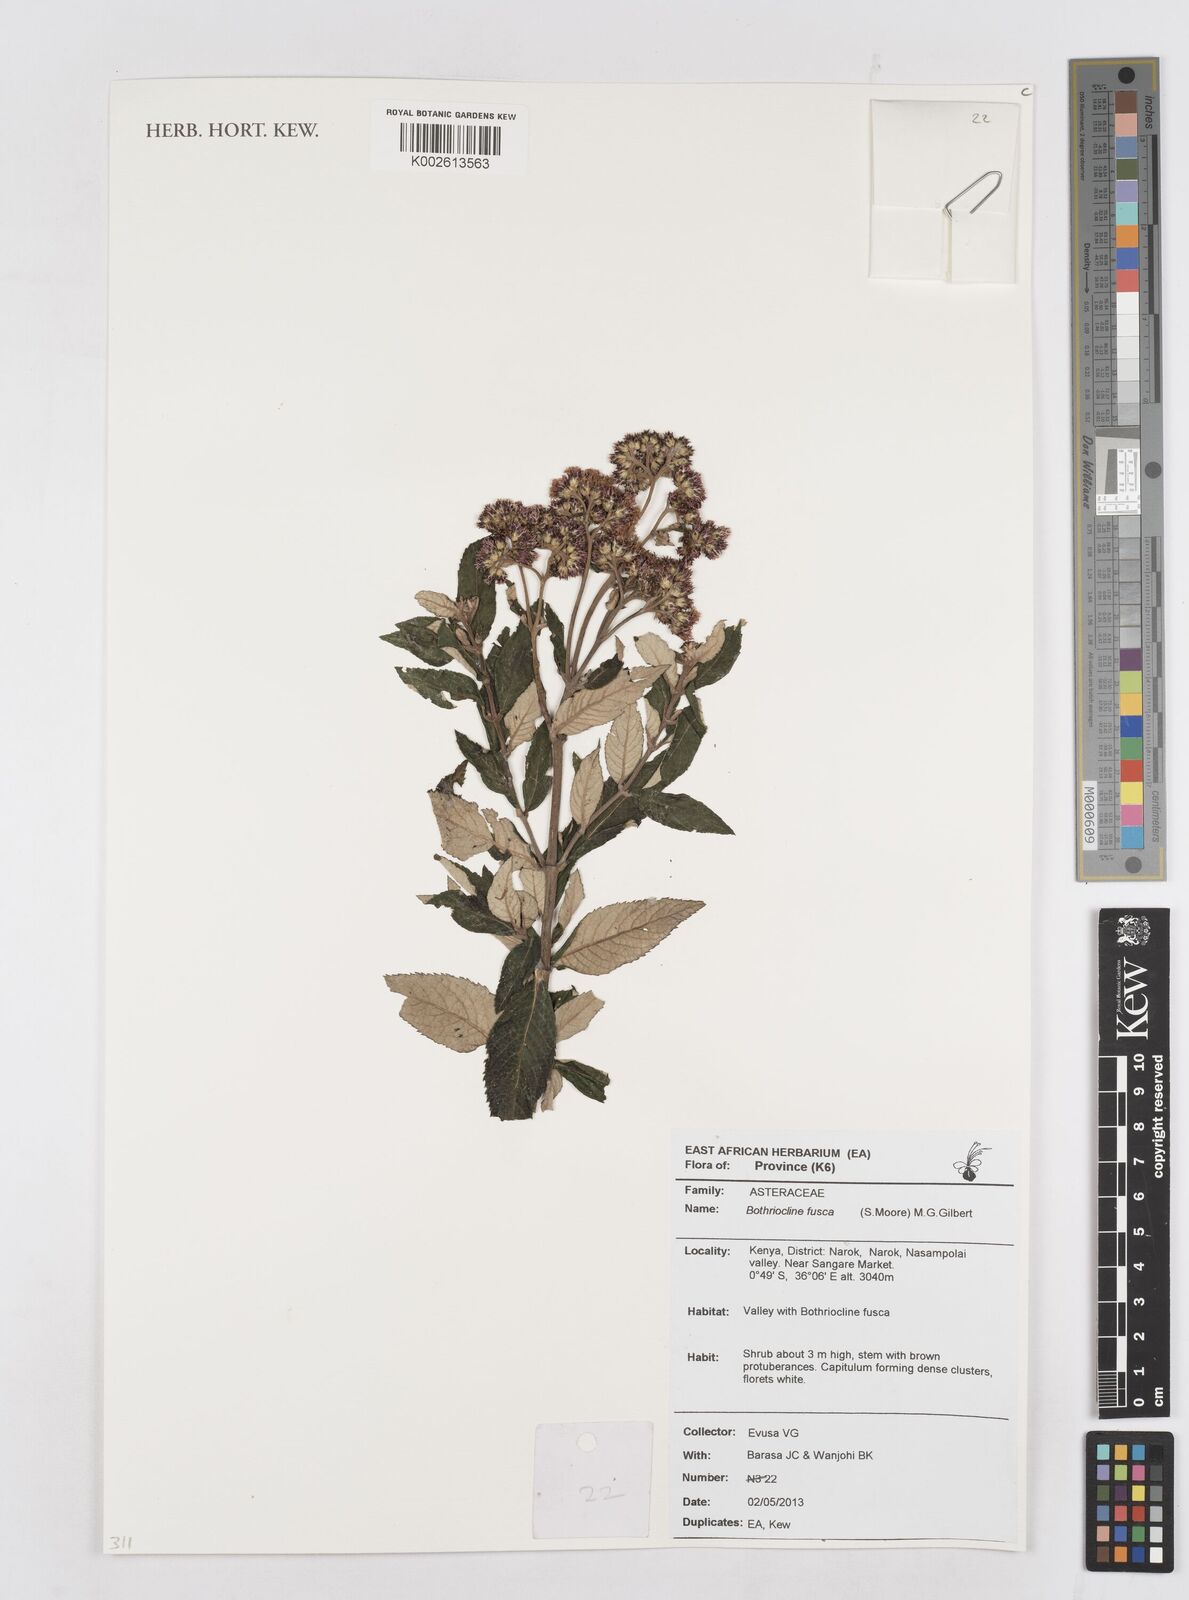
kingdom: Plantae
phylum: Tracheophyta
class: Magnoliopsida
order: Asterales
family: Asteraceae
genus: Bothriocline
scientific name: Bothriocline fusca
